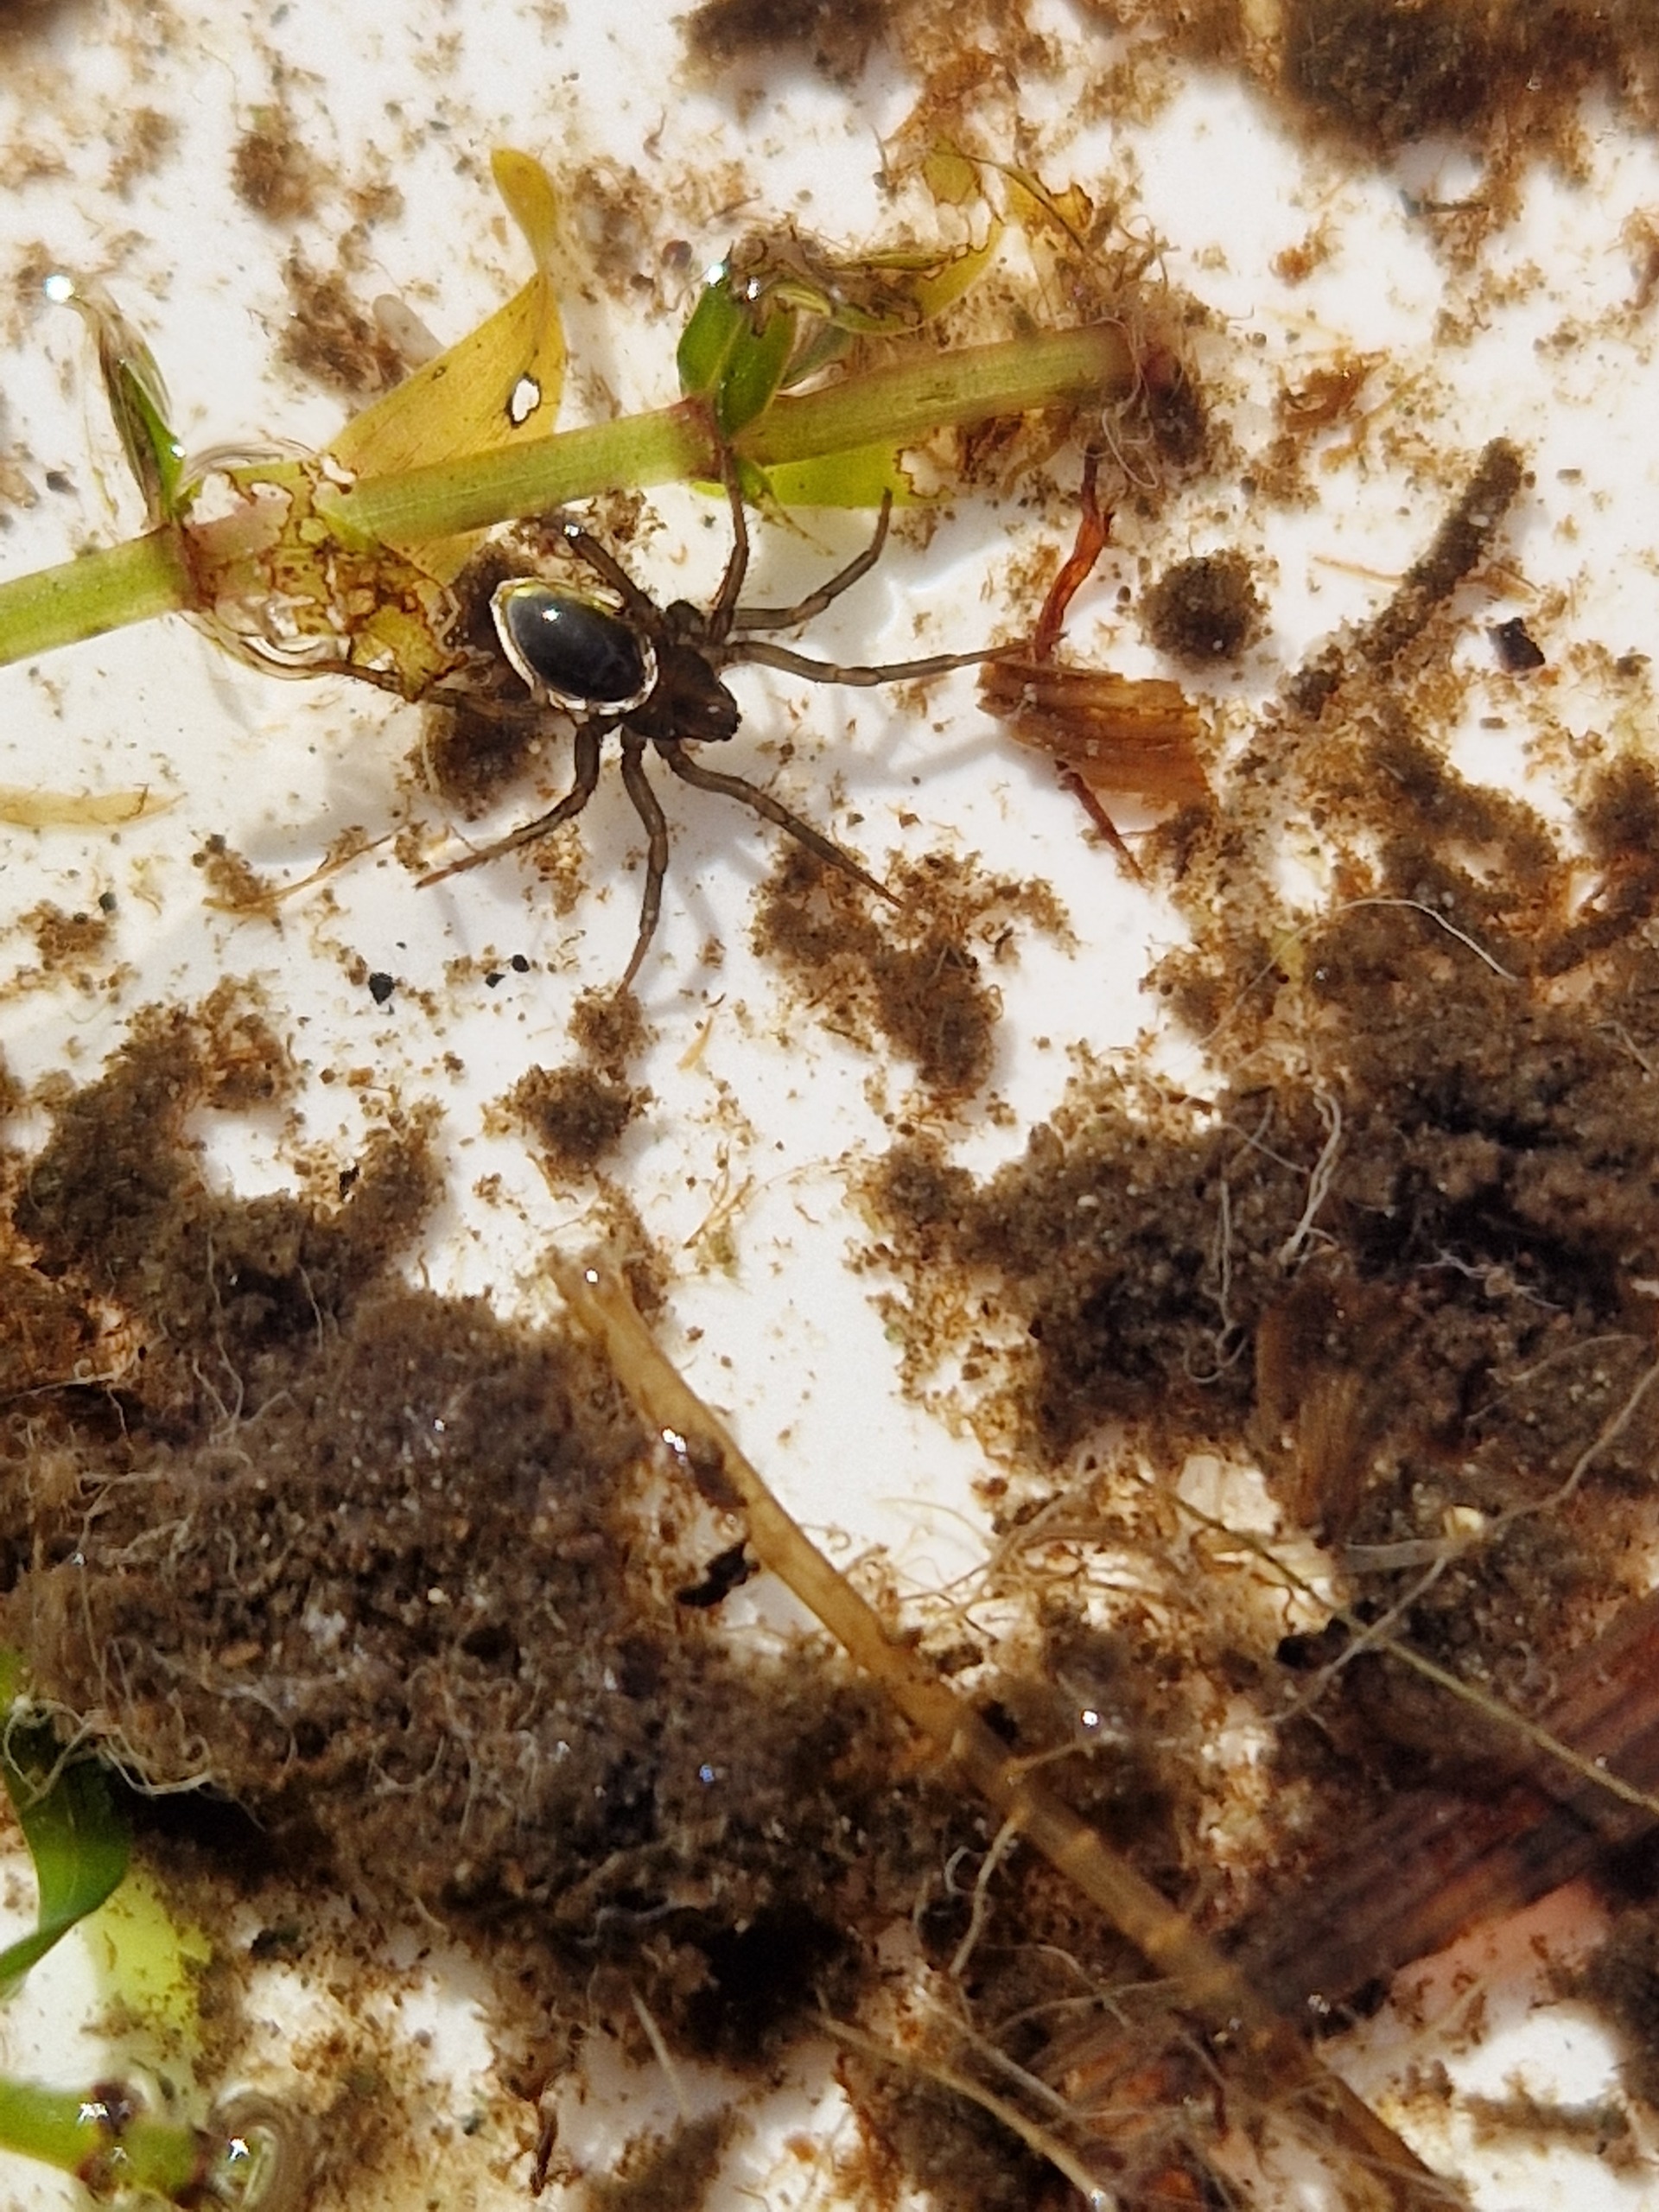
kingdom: Animalia
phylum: Arthropoda
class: Arachnida
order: Araneae
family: Dictynidae
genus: Argyroneta
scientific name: Argyroneta aquatica
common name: Vandedderkop
